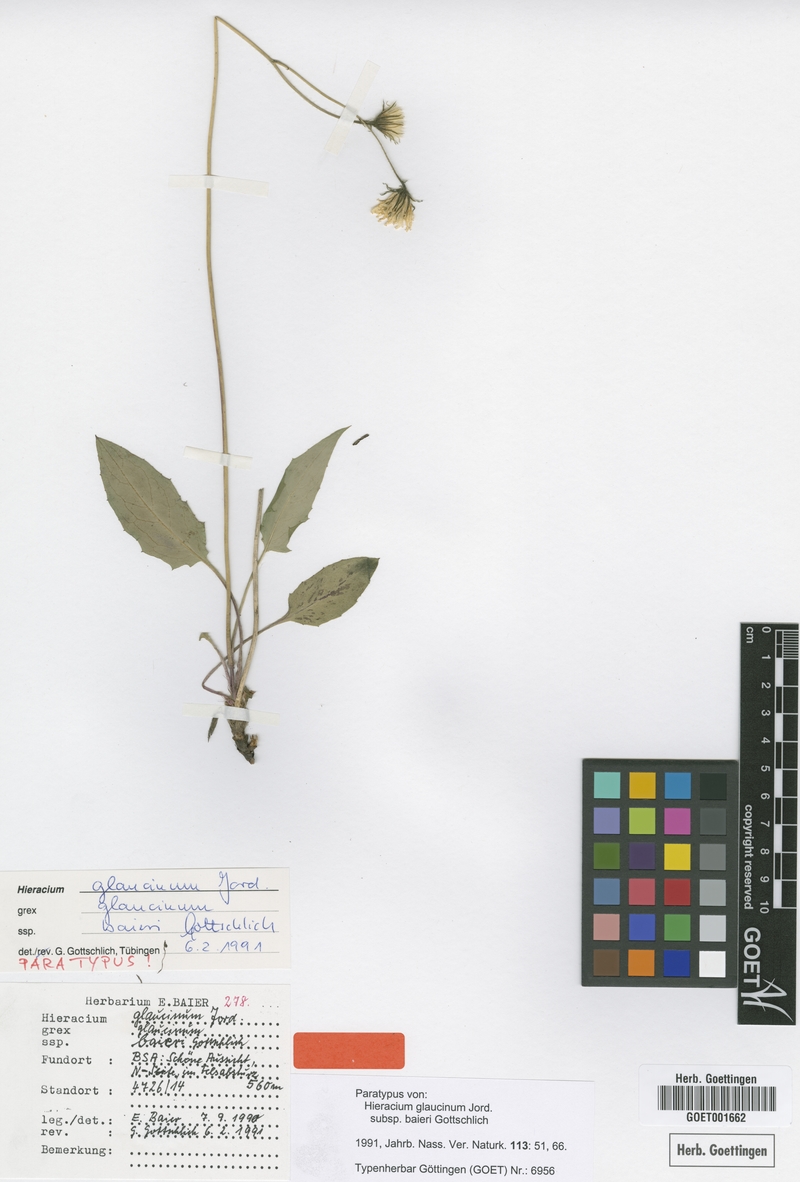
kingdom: Plantae
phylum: Tracheophyta
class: Magnoliopsida
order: Asterales
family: Asteraceae
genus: Hieracium
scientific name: Hieracium glaucinum
